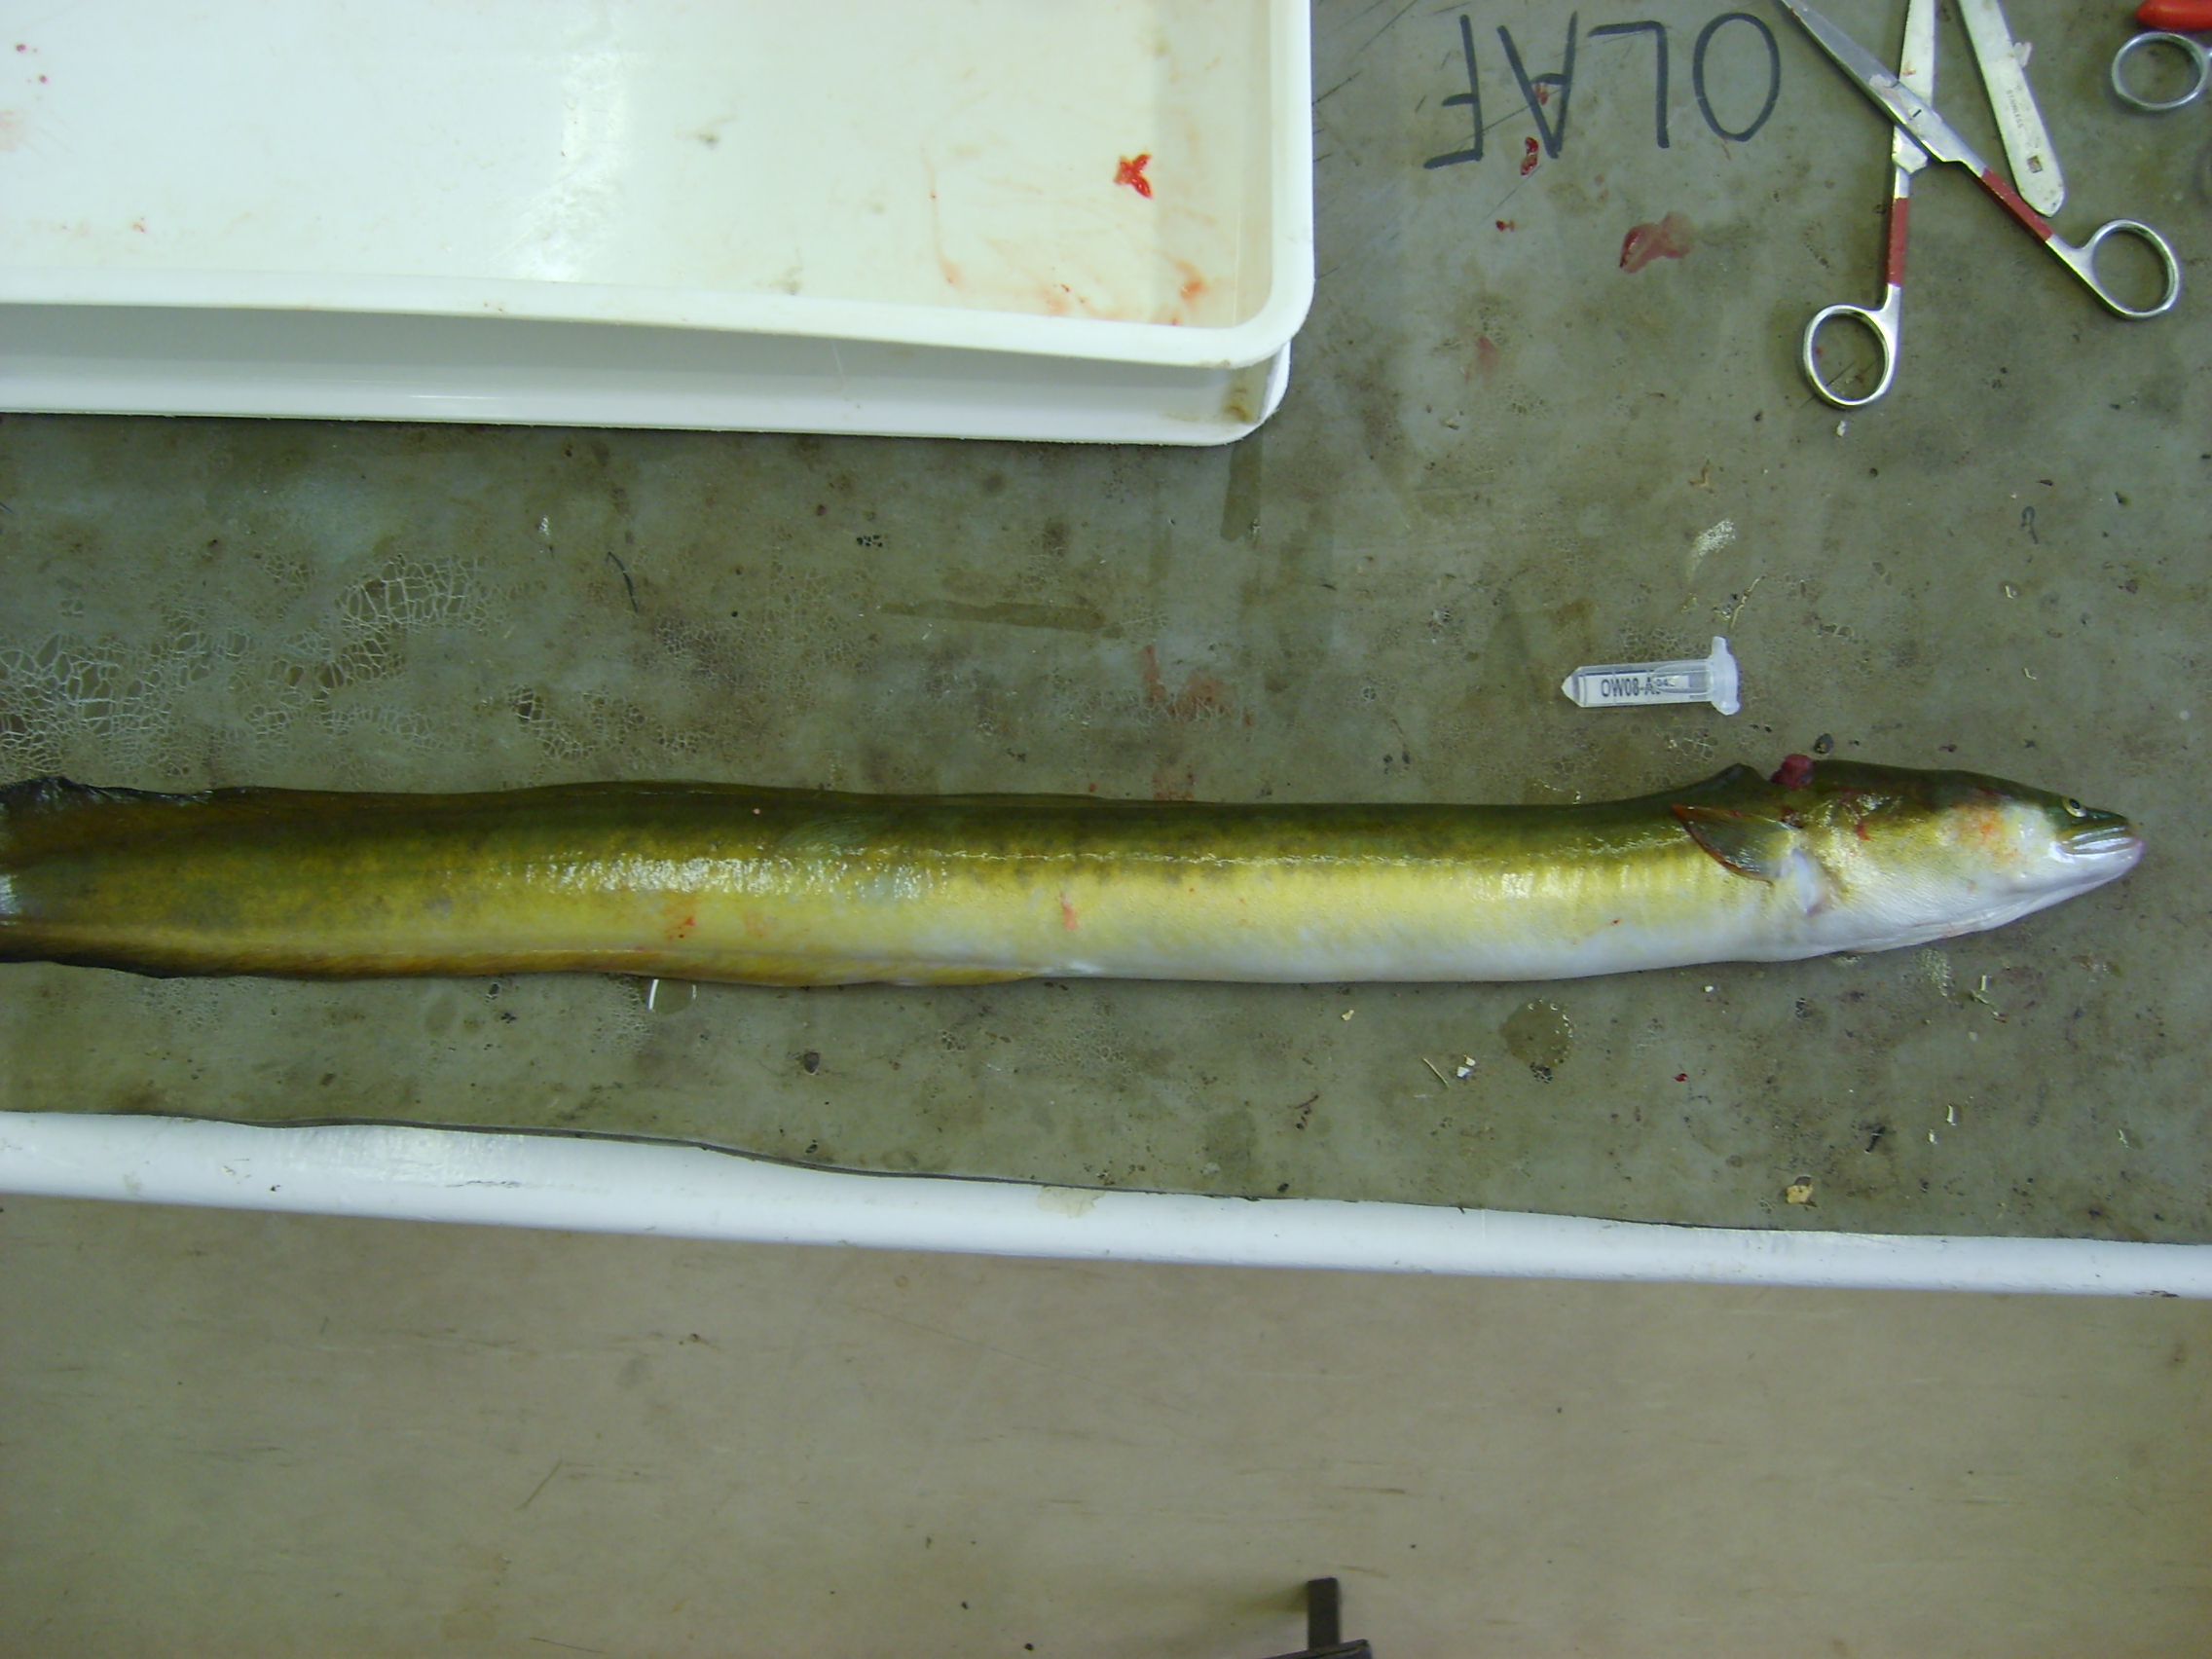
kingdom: Animalia
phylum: Chordata
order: Anguilliformes
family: Anguillidae
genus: Anguilla
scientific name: Anguilla mossambica
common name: African longfin eel
